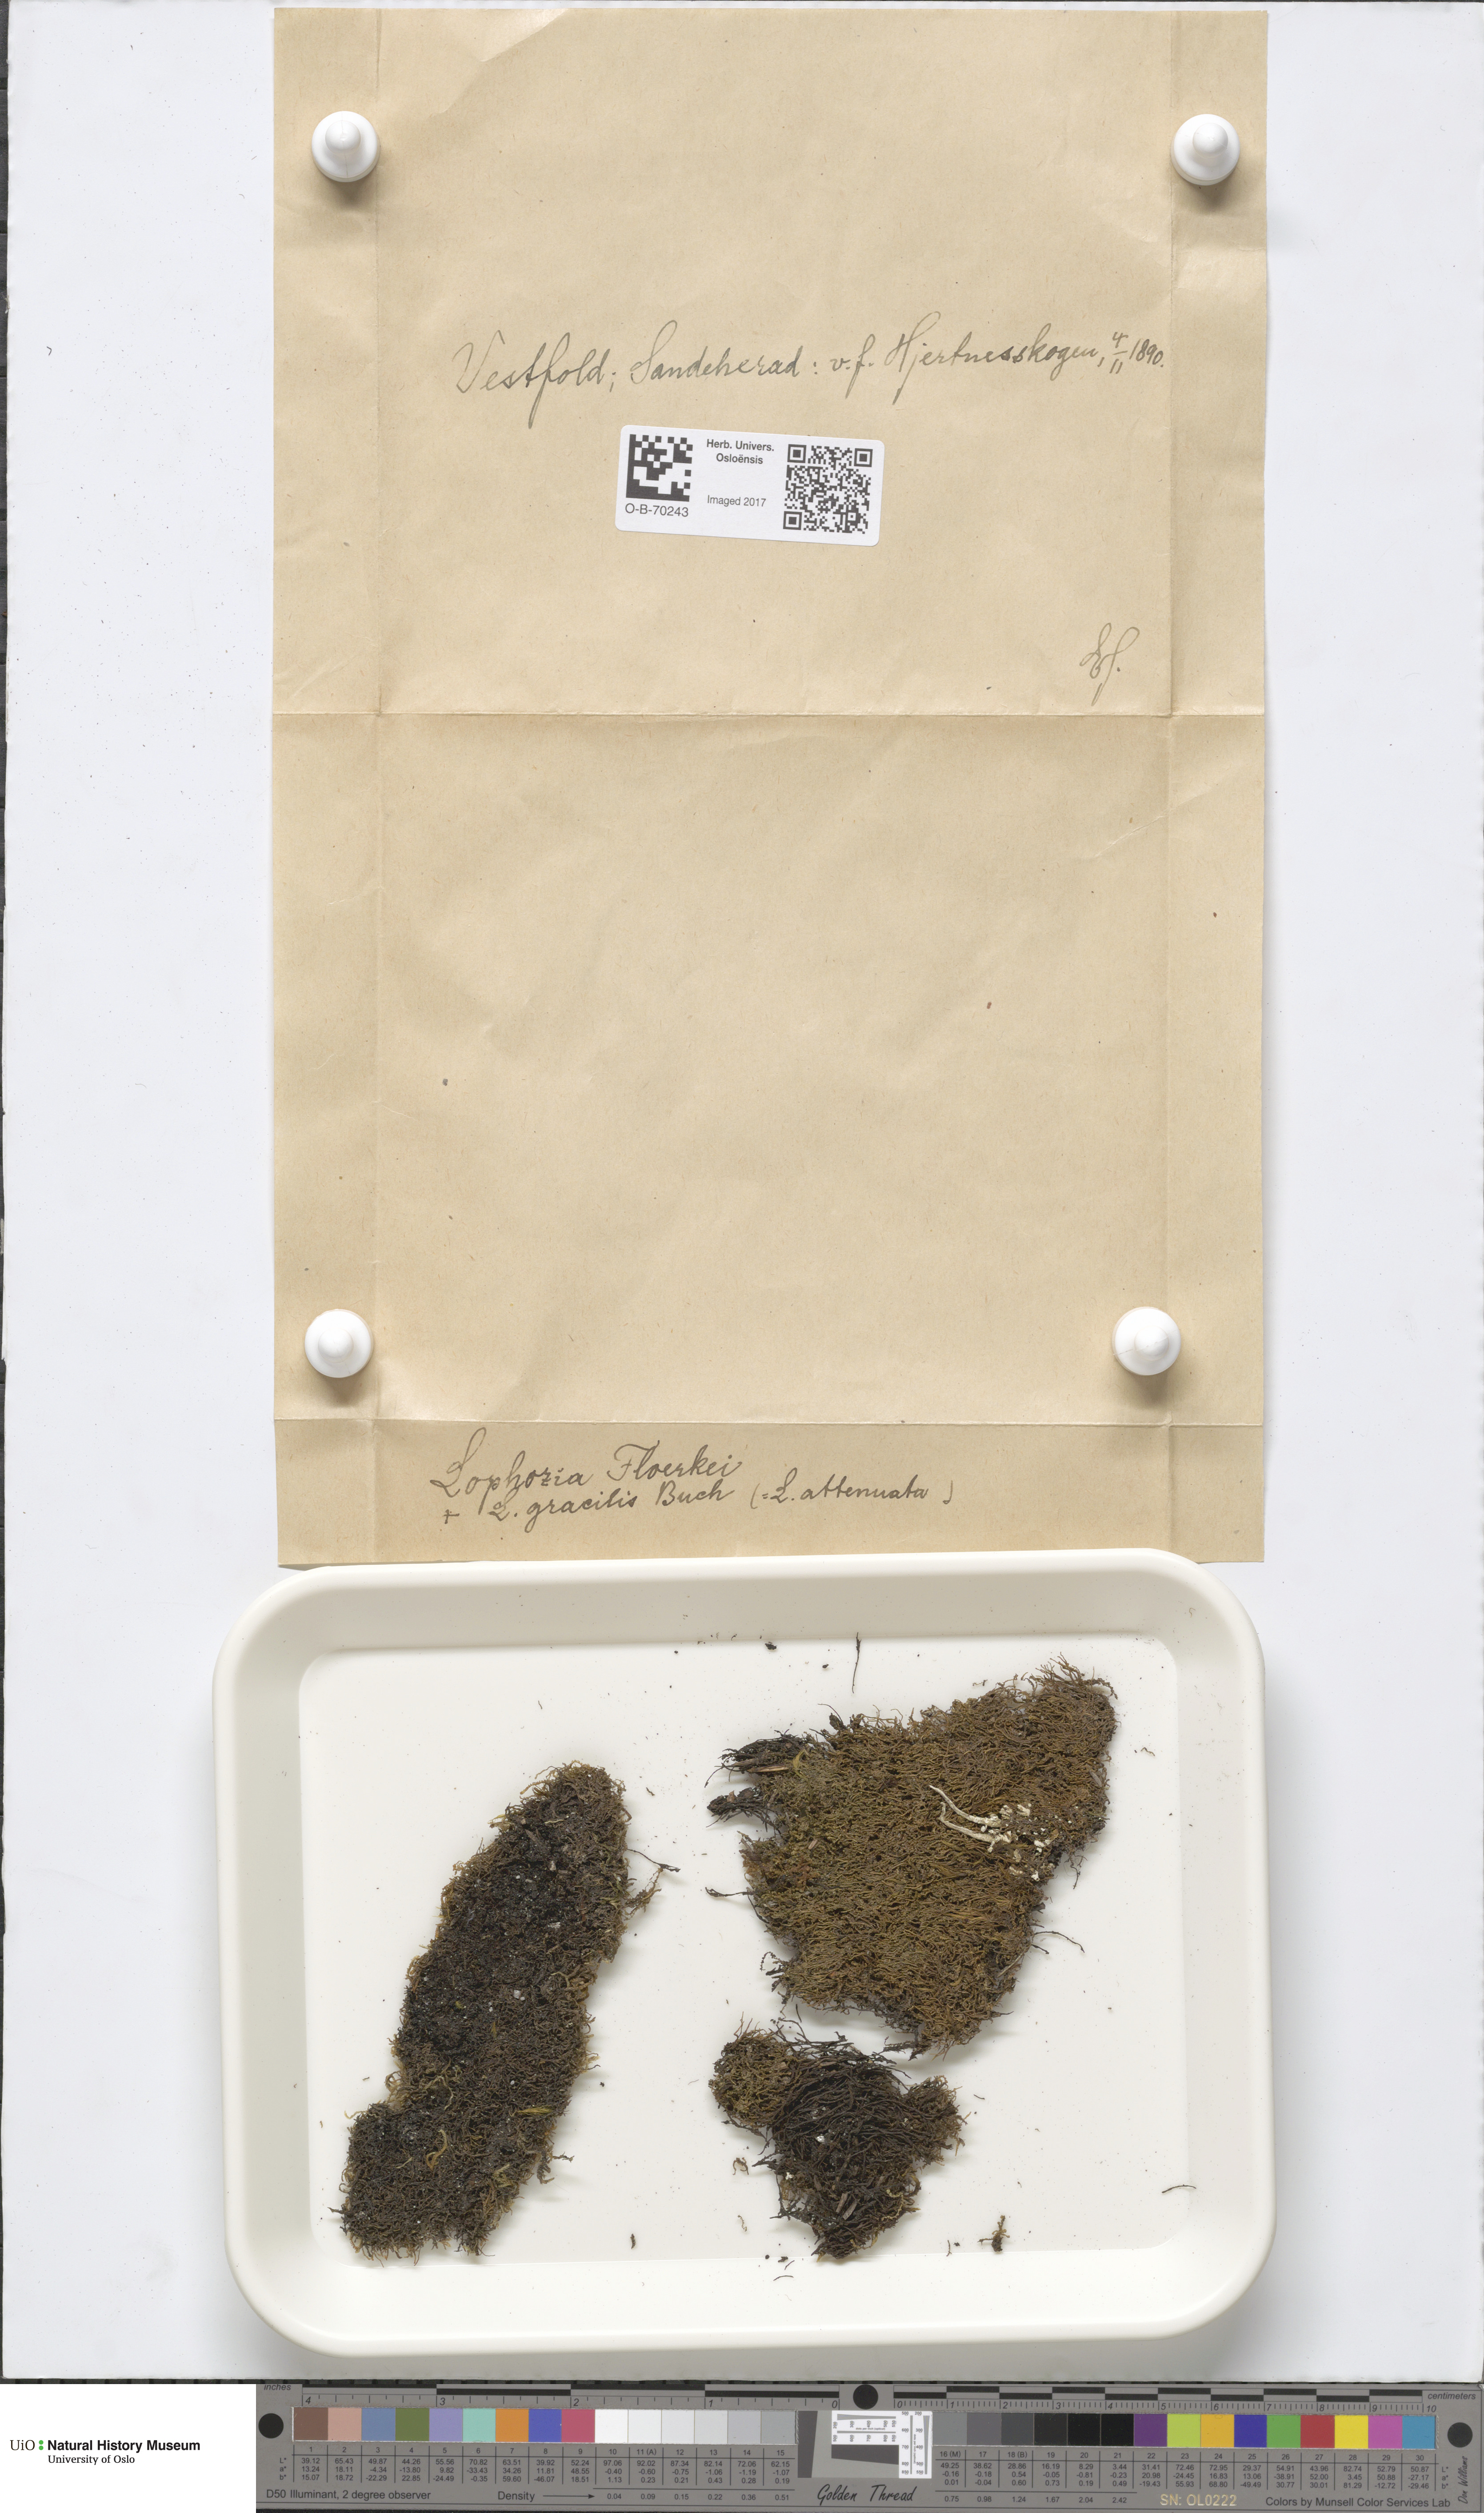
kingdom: Plantae
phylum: Marchantiophyta
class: Jungermanniopsida
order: Jungermanniales
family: Anastrophyllaceae
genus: Neoorthocaulis
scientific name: Neoorthocaulis floerkei
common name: Floerke's barbilophozia
